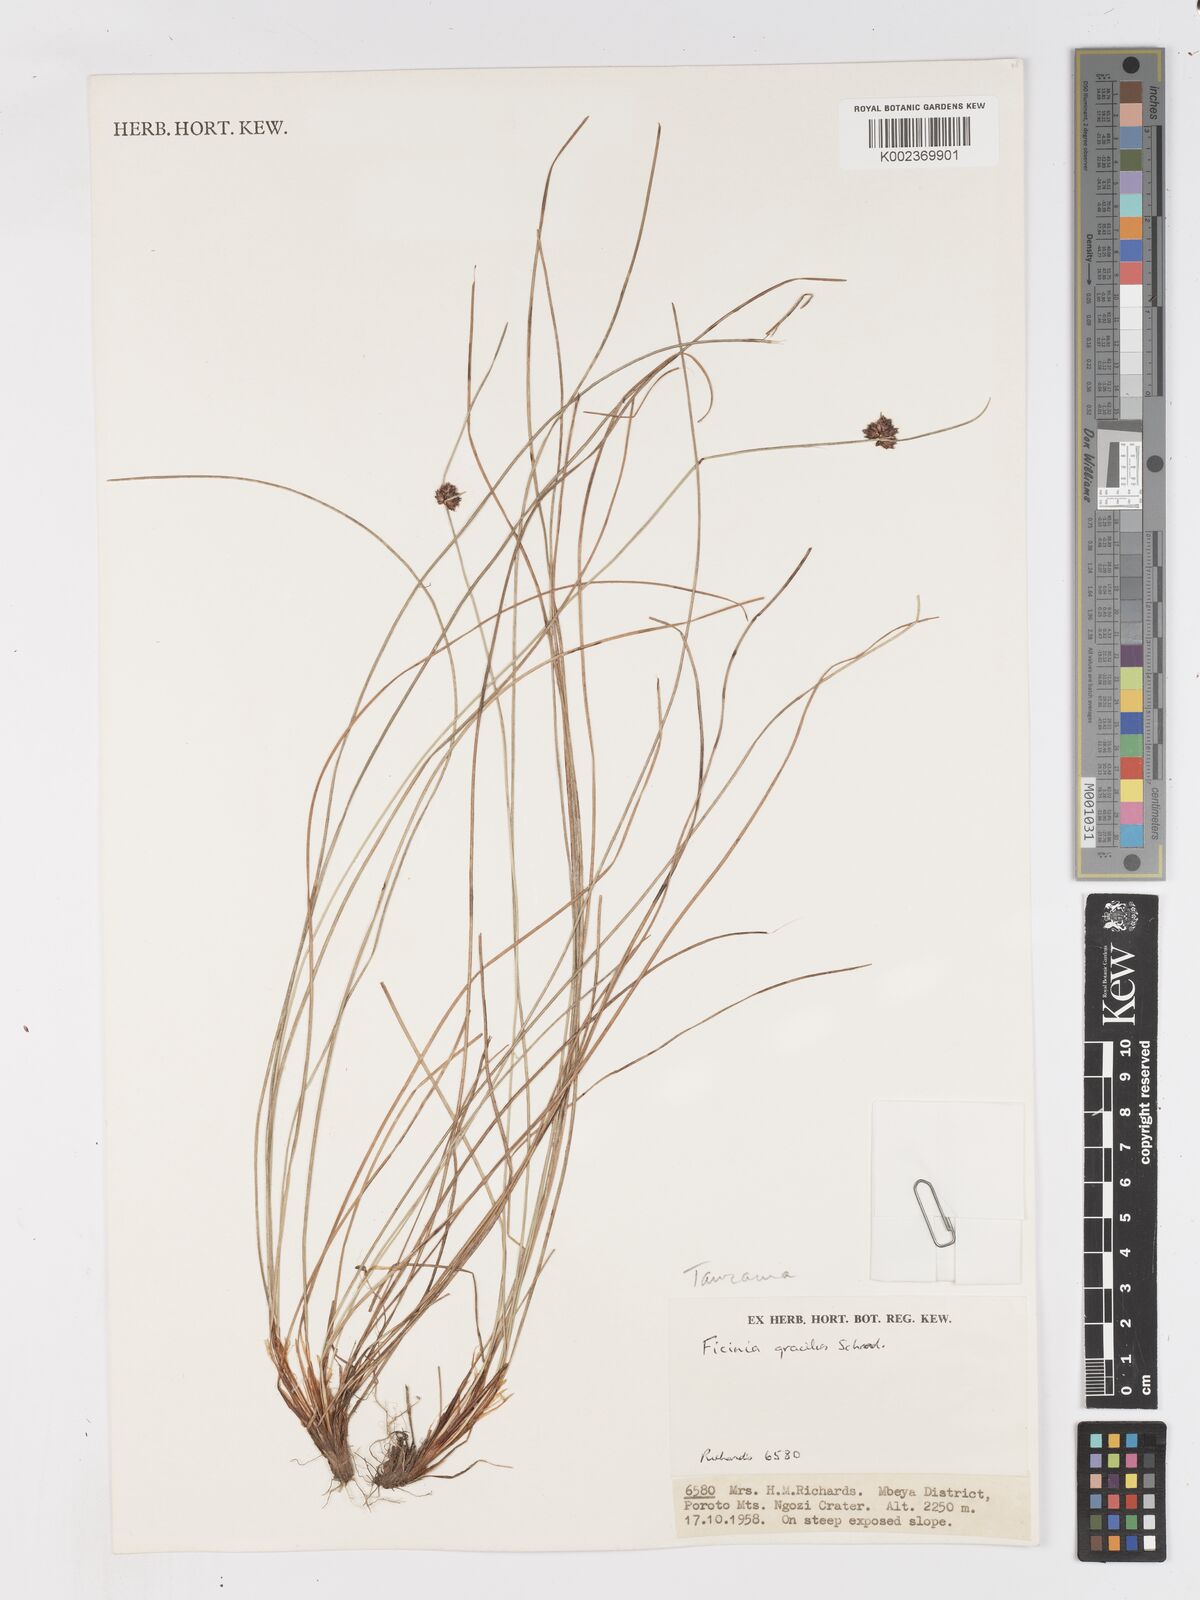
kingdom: Plantae
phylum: Tracheophyta
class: Liliopsida
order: Poales
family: Cyperaceae
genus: Ficinia
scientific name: Ficinia gracilis
